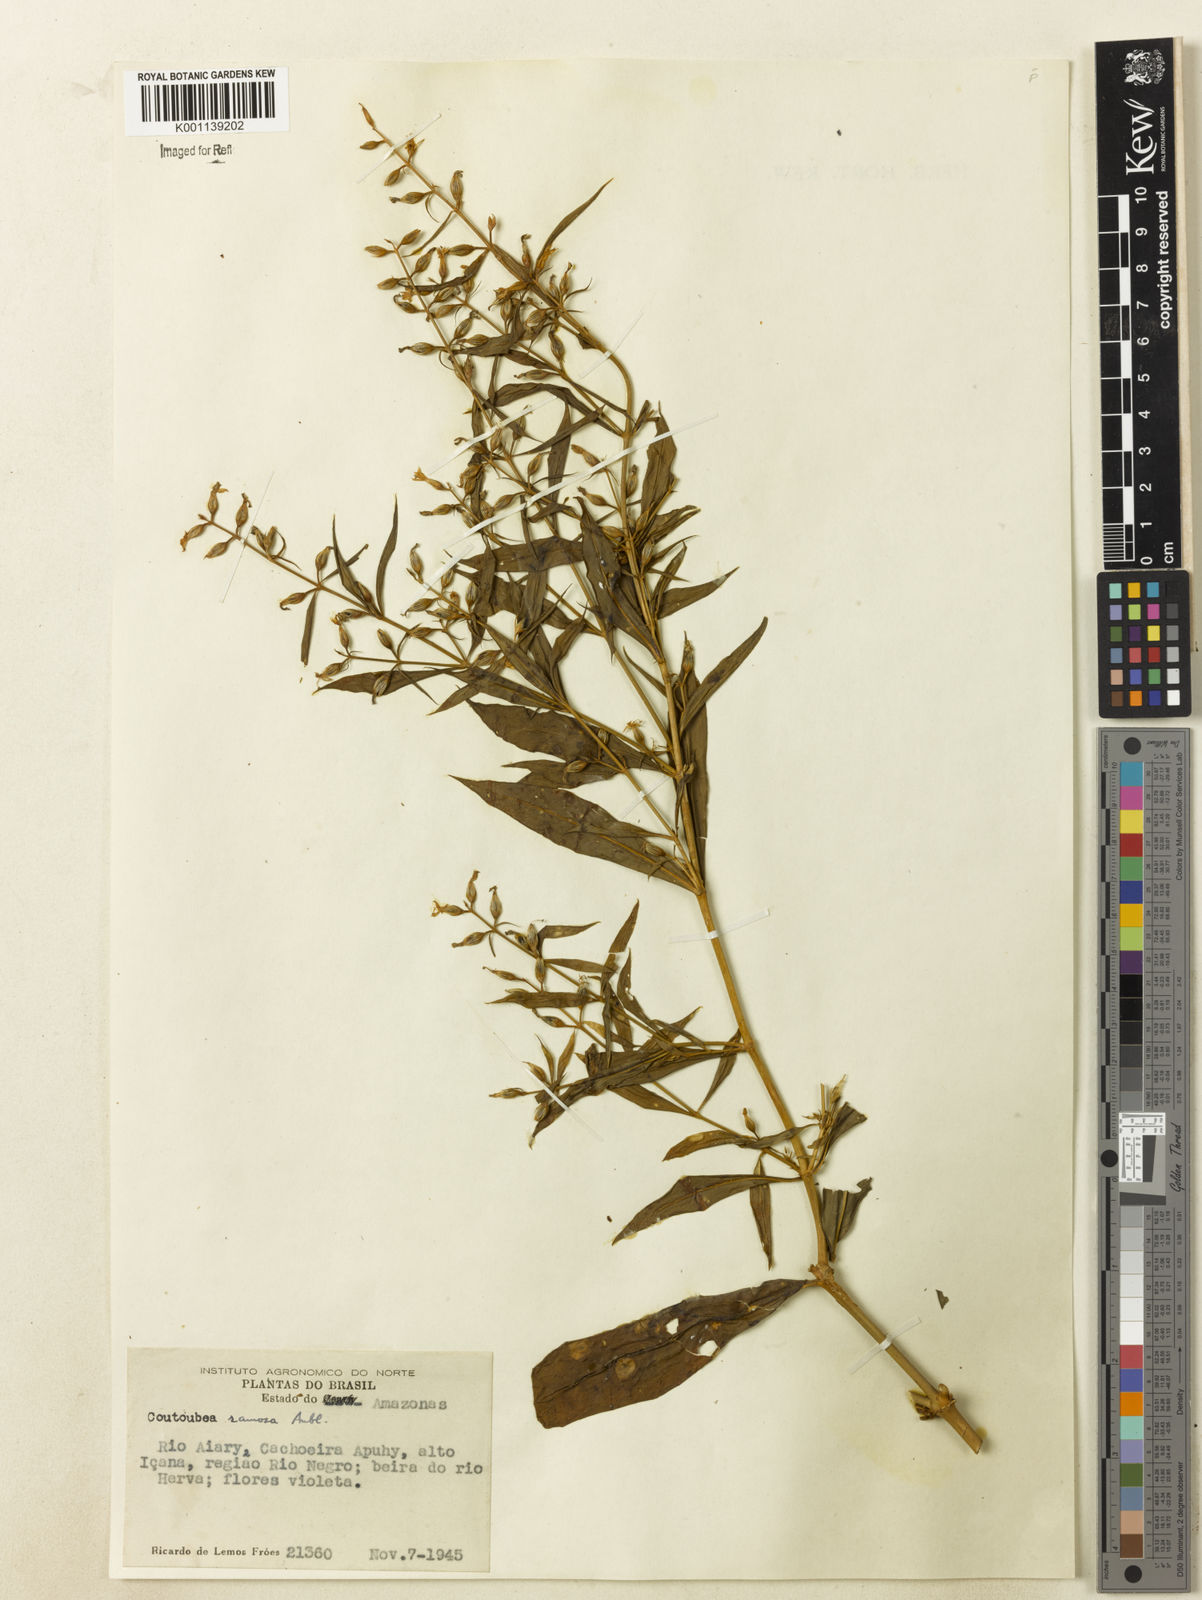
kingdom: Plantae
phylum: Tracheophyta
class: Magnoliopsida
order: Gentianales
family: Gentianaceae
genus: Coutoubea
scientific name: Coutoubea ramosa
